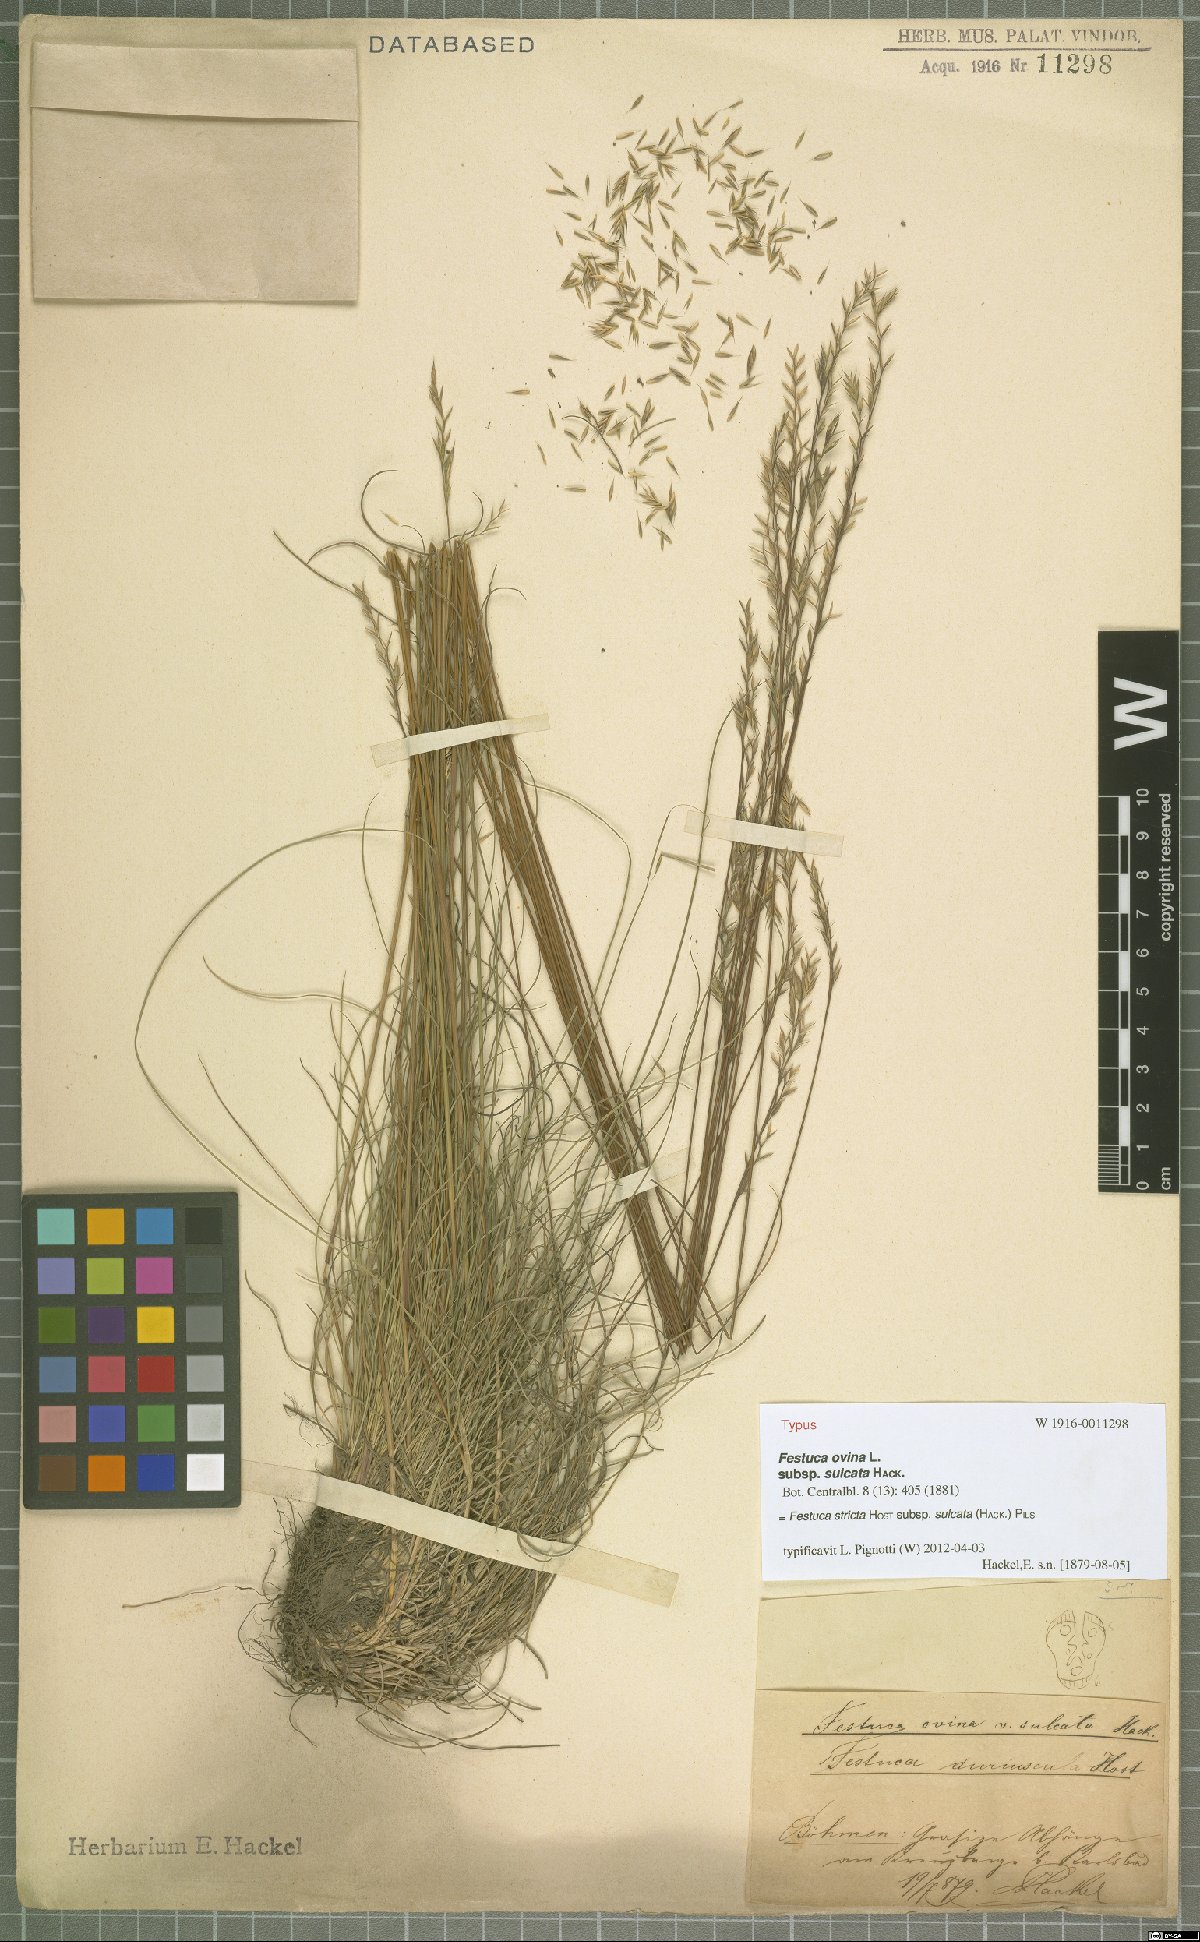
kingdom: Plantae
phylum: Tracheophyta
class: Liliopsida
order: Poales
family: Poaceae
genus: Festuca
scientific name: Festuca rupicola
